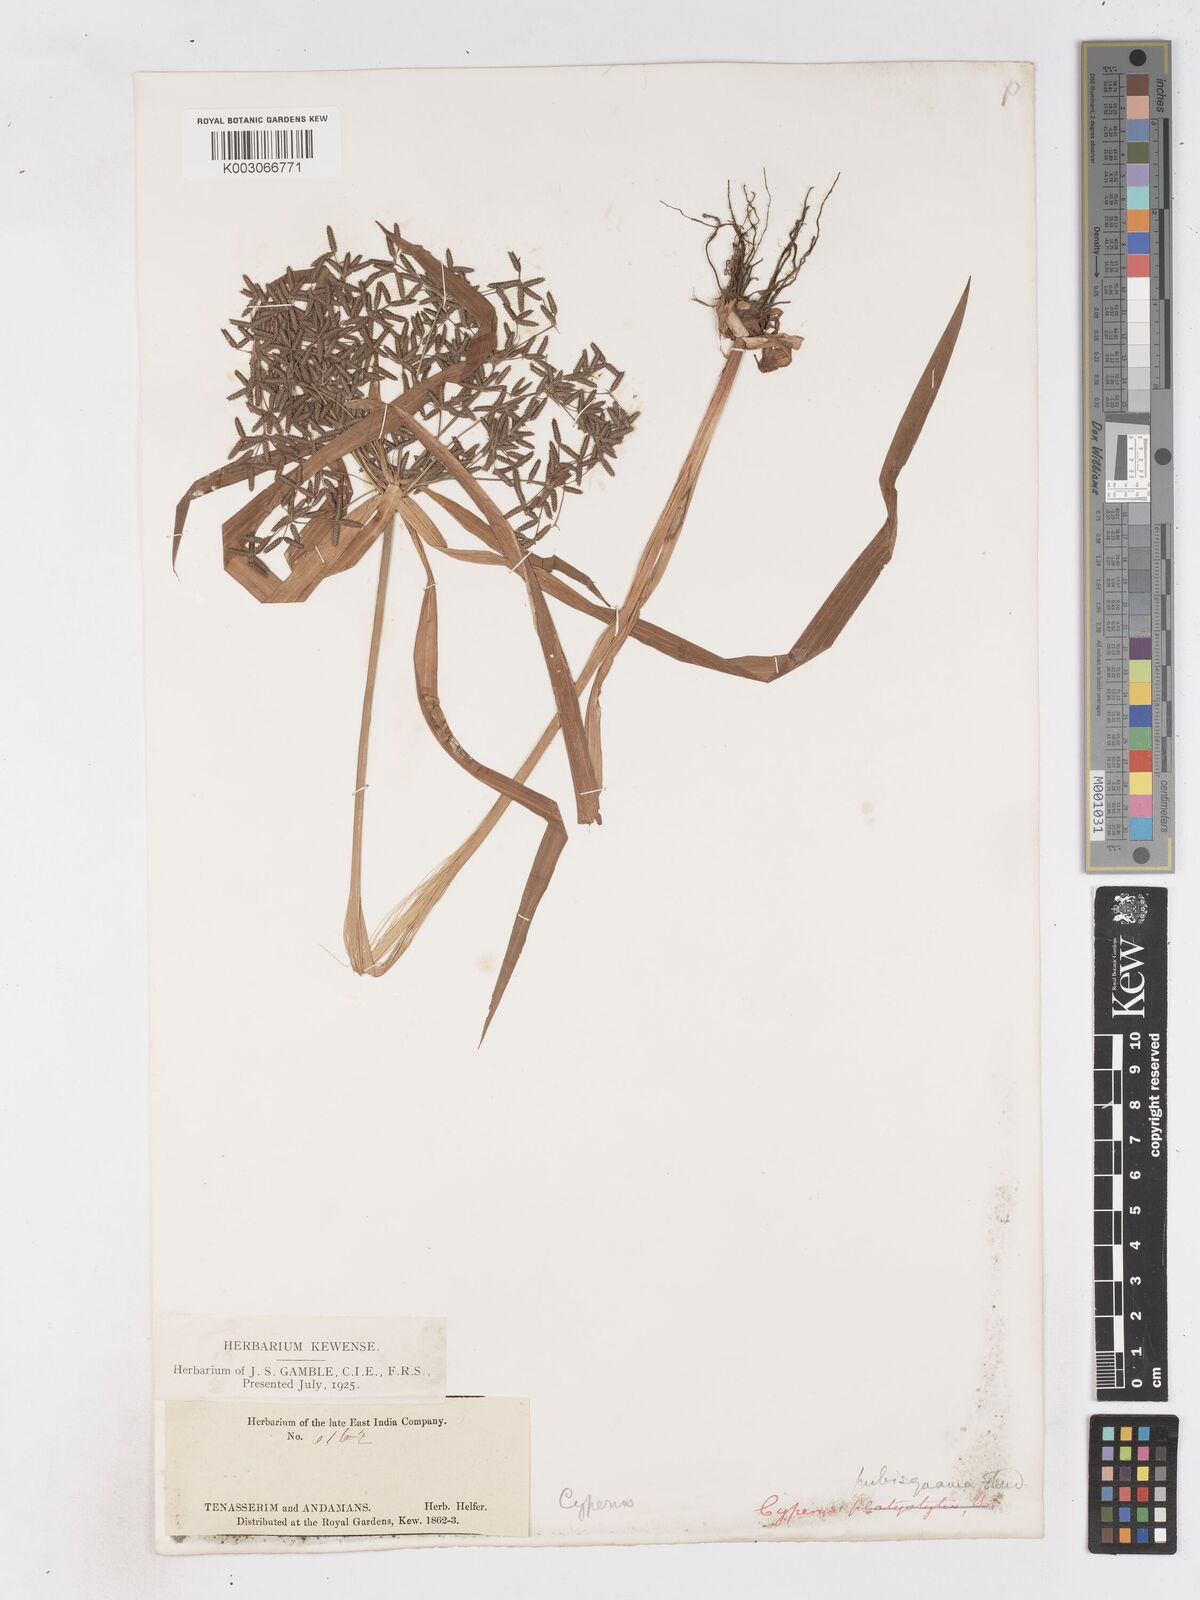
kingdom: Plantae
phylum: Tracheophyta
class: Liliopsida
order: Poales
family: Cyperaceae
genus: Cyperus
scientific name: Cyperus diffusus
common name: Dwarf umbrella grass
